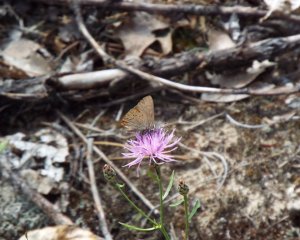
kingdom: Animalia
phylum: Arthropoda
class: Insecta
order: Lepidoptera
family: Lycaenidae
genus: Harkenclenus
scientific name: Harkenclenus titus
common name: Coral Hairstreak
